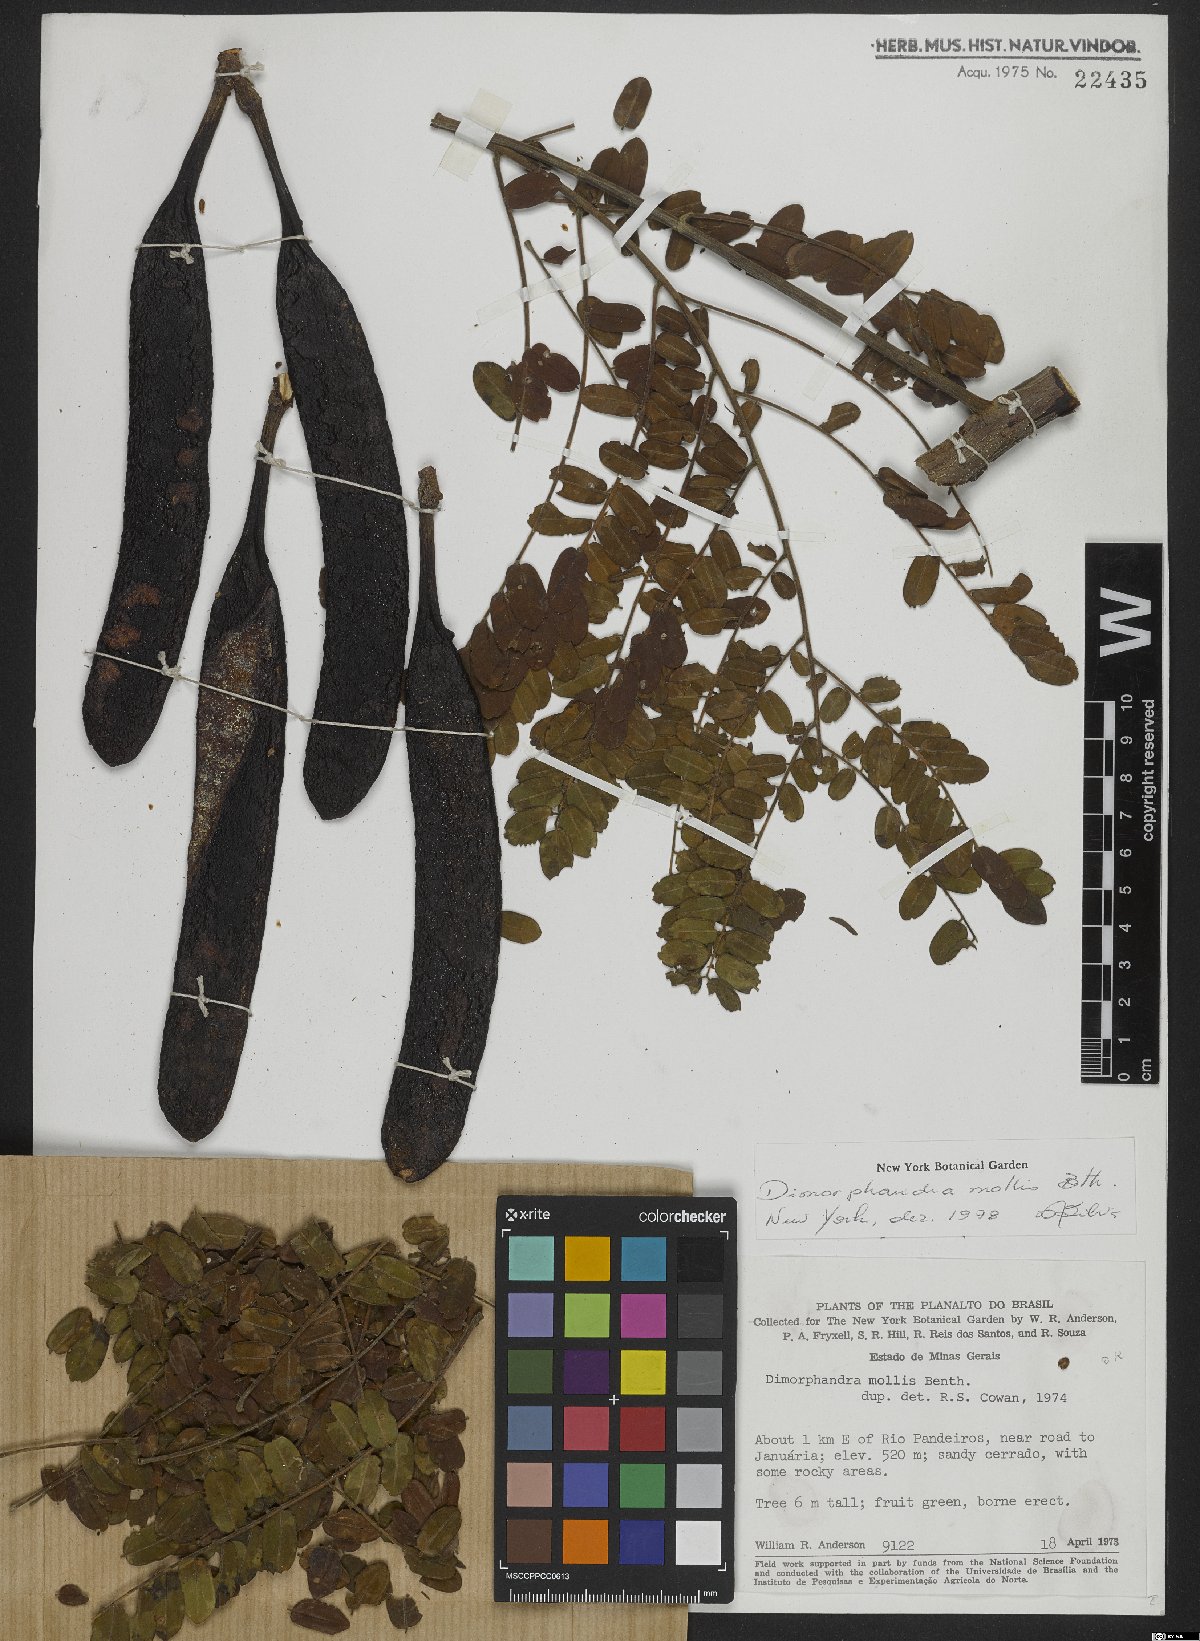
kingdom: Plantae
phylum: Tracheophyta
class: Magnoliopsida
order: Fabales
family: Fabaceae
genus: Dimorphandra
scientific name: Dimorphandra mollis
